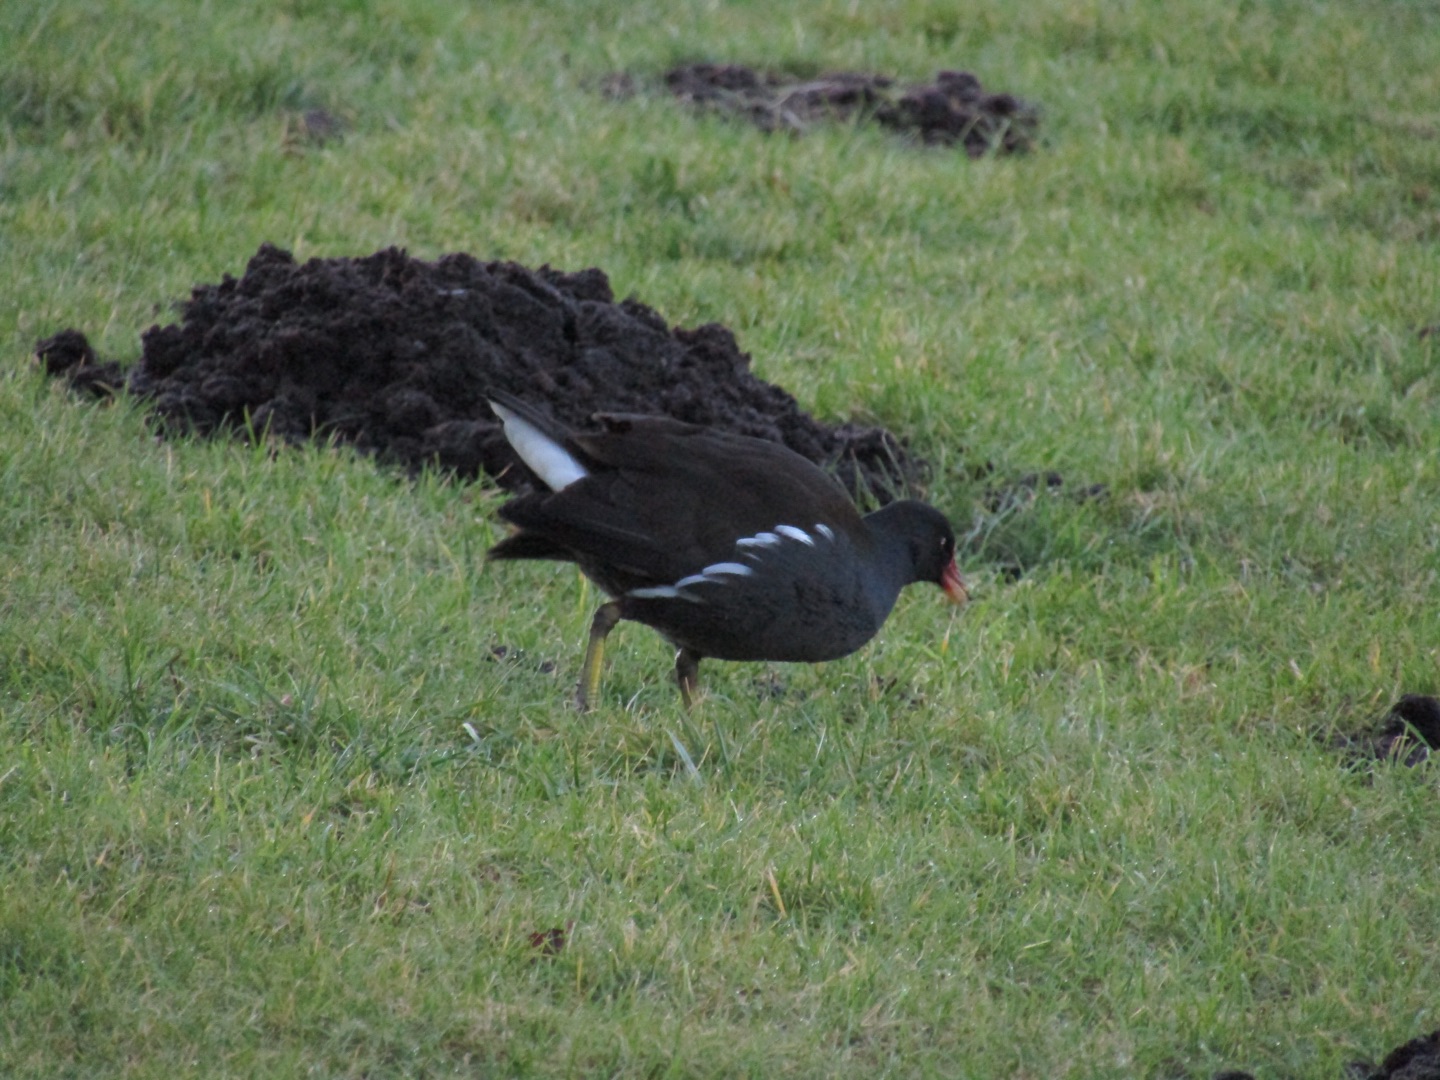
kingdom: Animalia
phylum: Chordata
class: Aves
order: Gruiformes
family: Rallidae
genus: Gallinula
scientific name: Gallinula chloropus
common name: Grønbenet rørhøne
